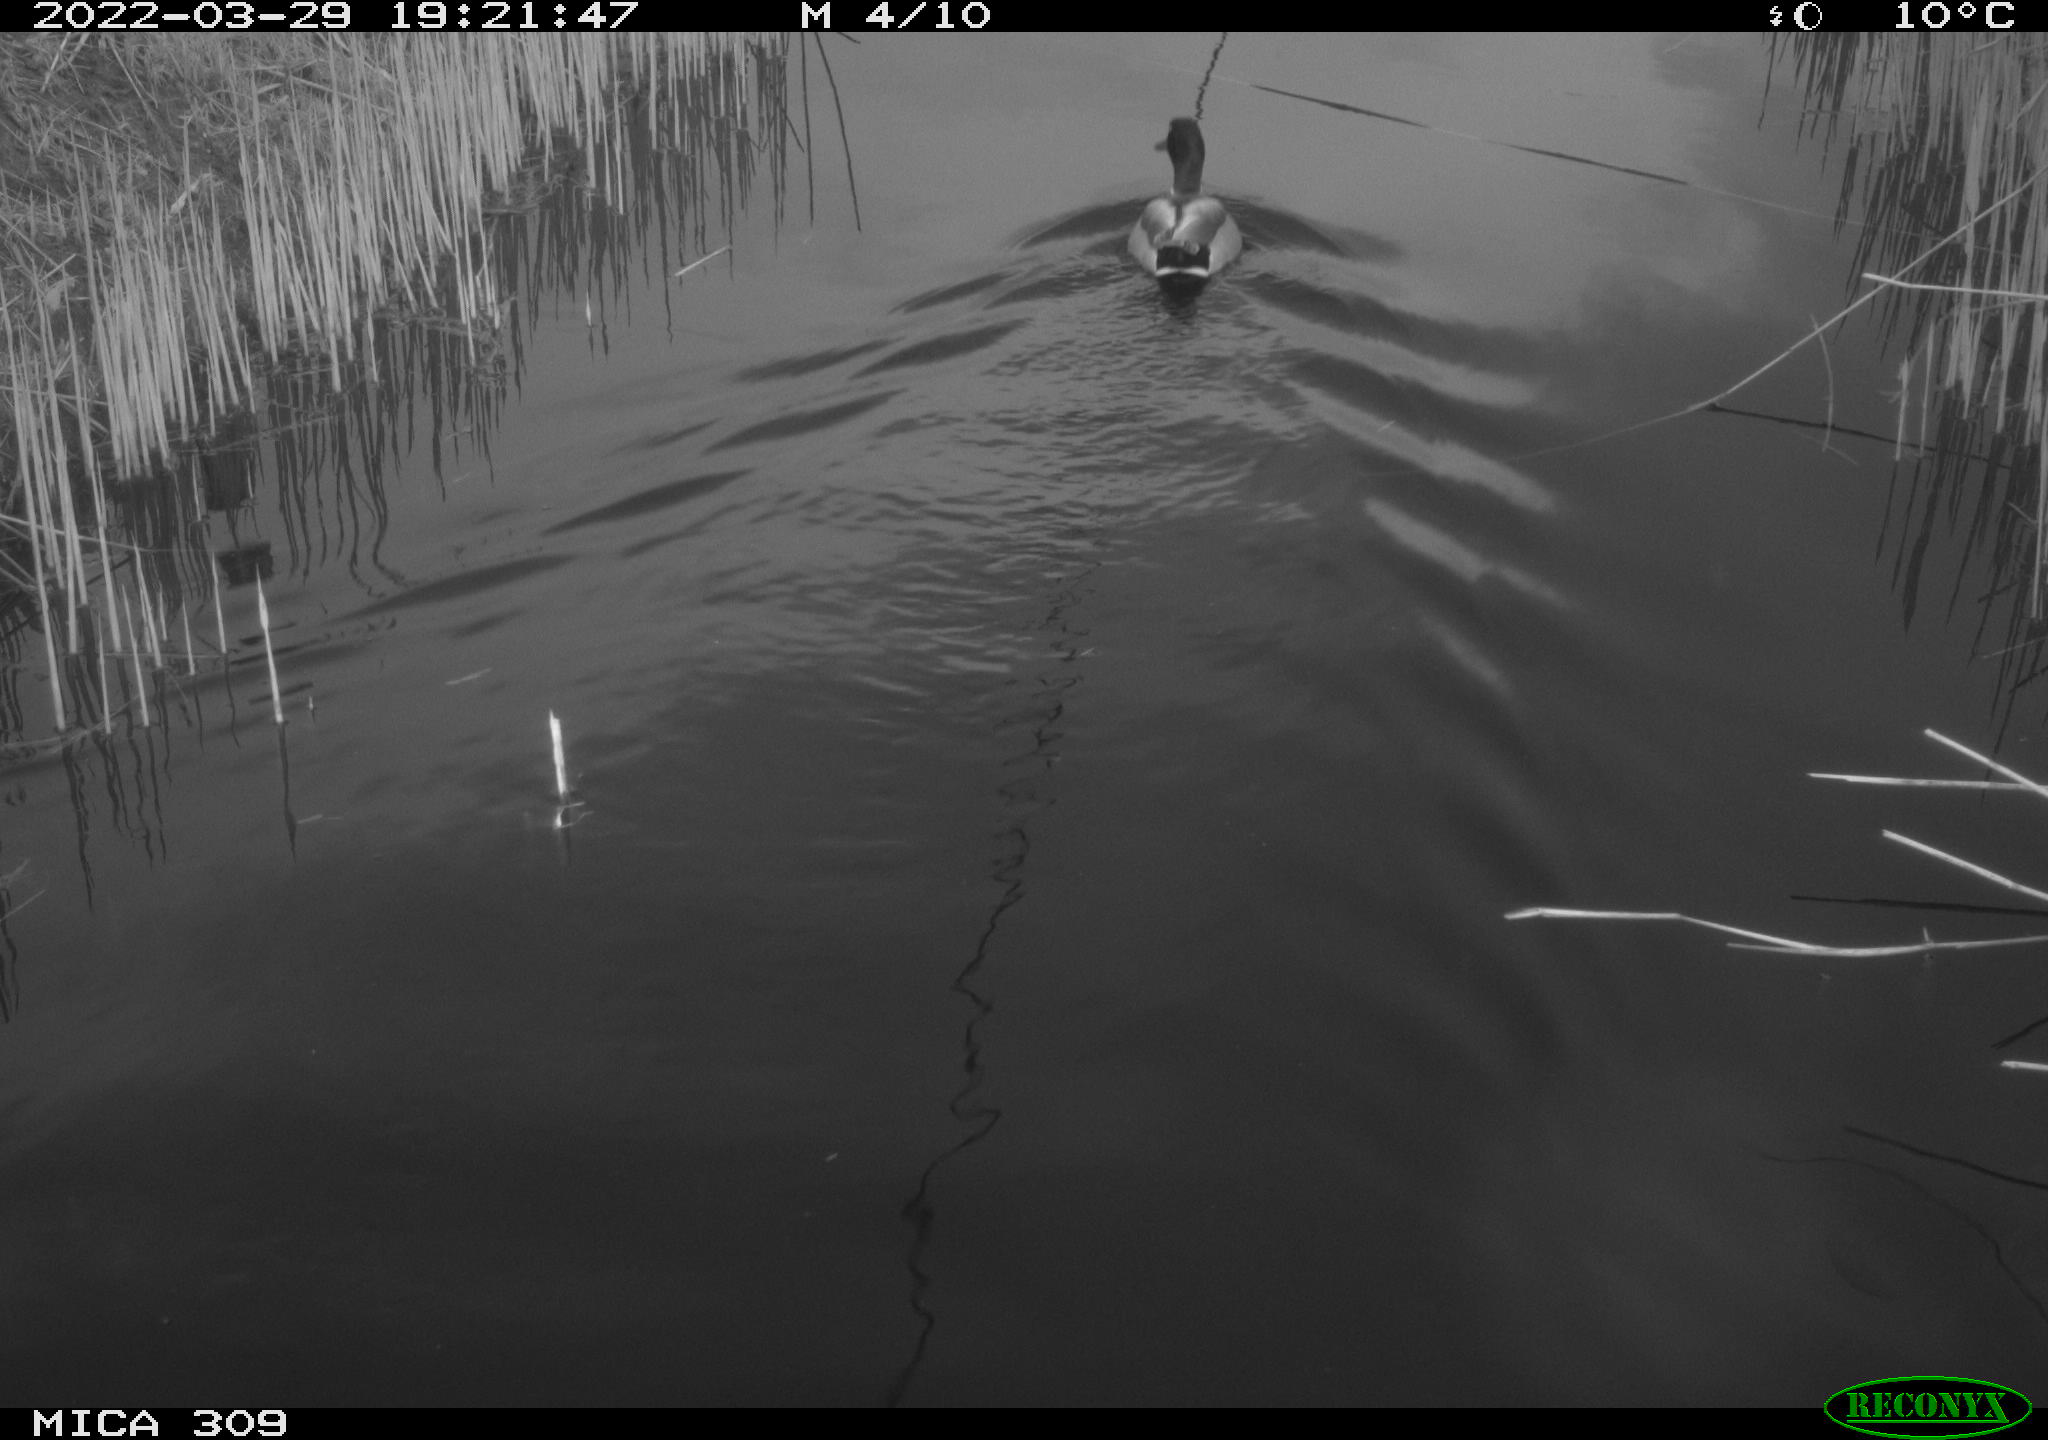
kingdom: Animalia
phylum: Chordata
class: Aves
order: Anseriformes
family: Anatidae
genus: Anas
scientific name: Anas platyrhynchos
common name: Mallard
